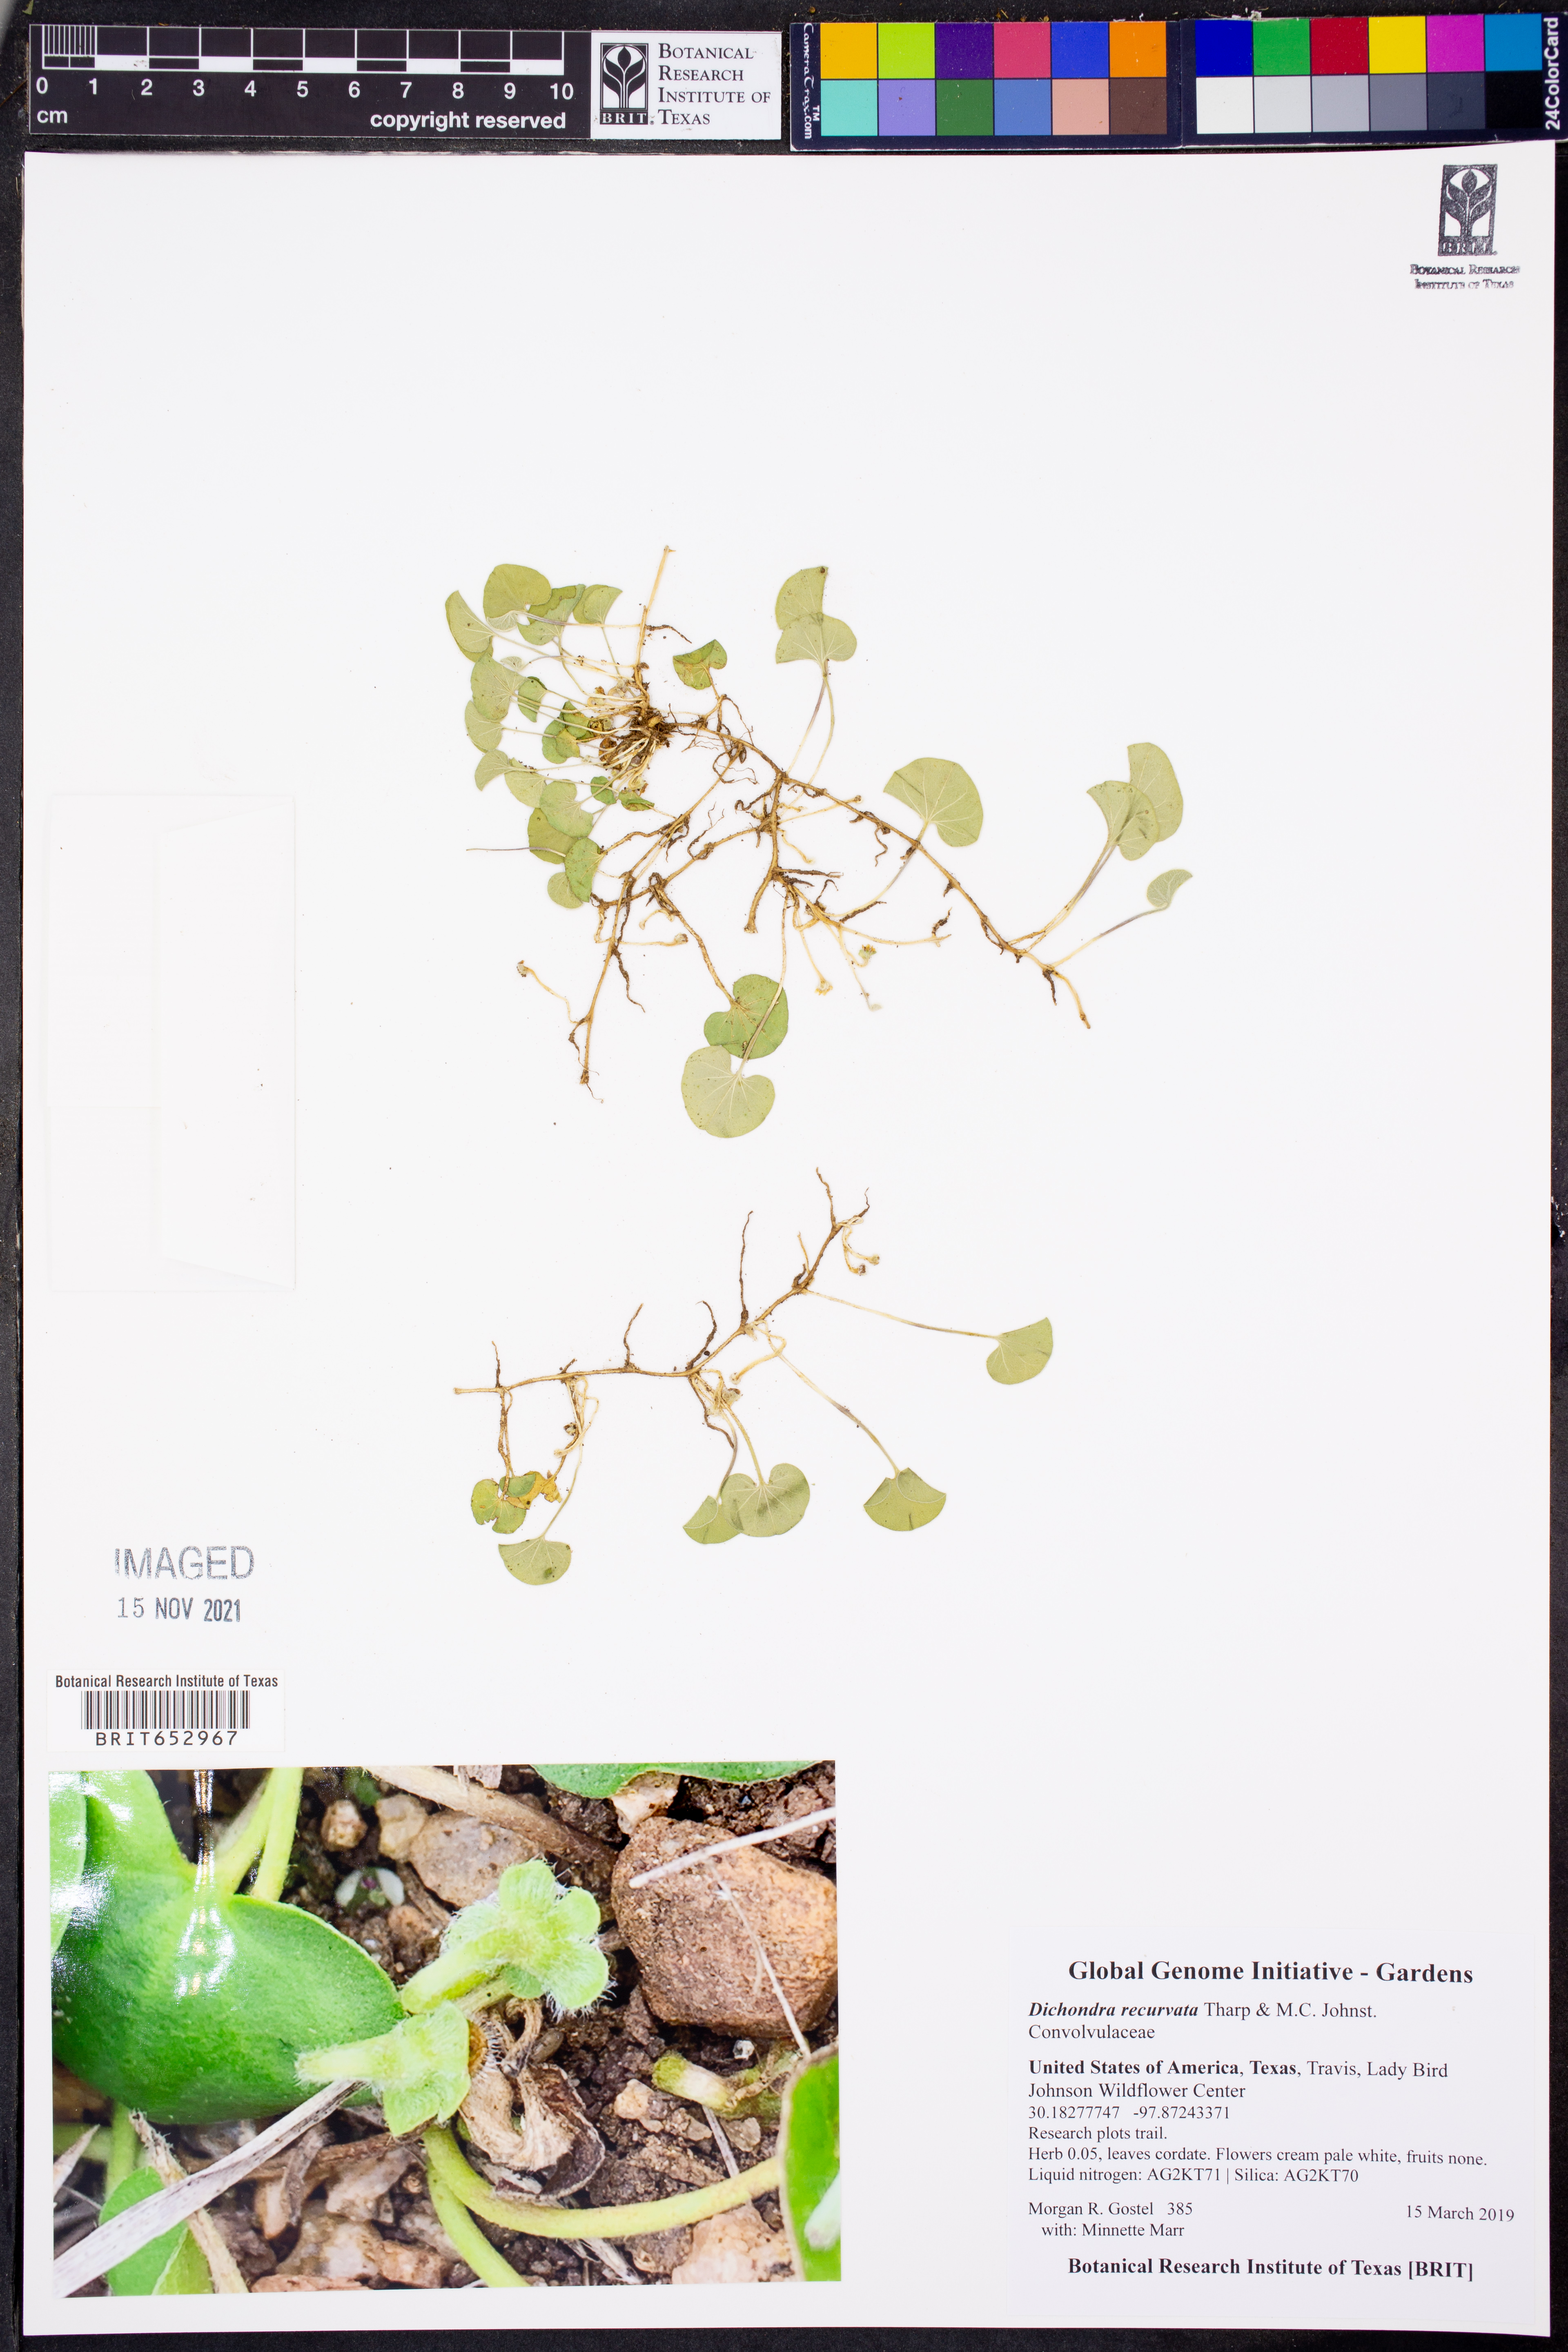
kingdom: Plantae
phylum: Tracheophyta
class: Magnoliopsida
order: Solanales
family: Convolvulaceae
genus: Dichondra
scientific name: Dichondra recurvata
